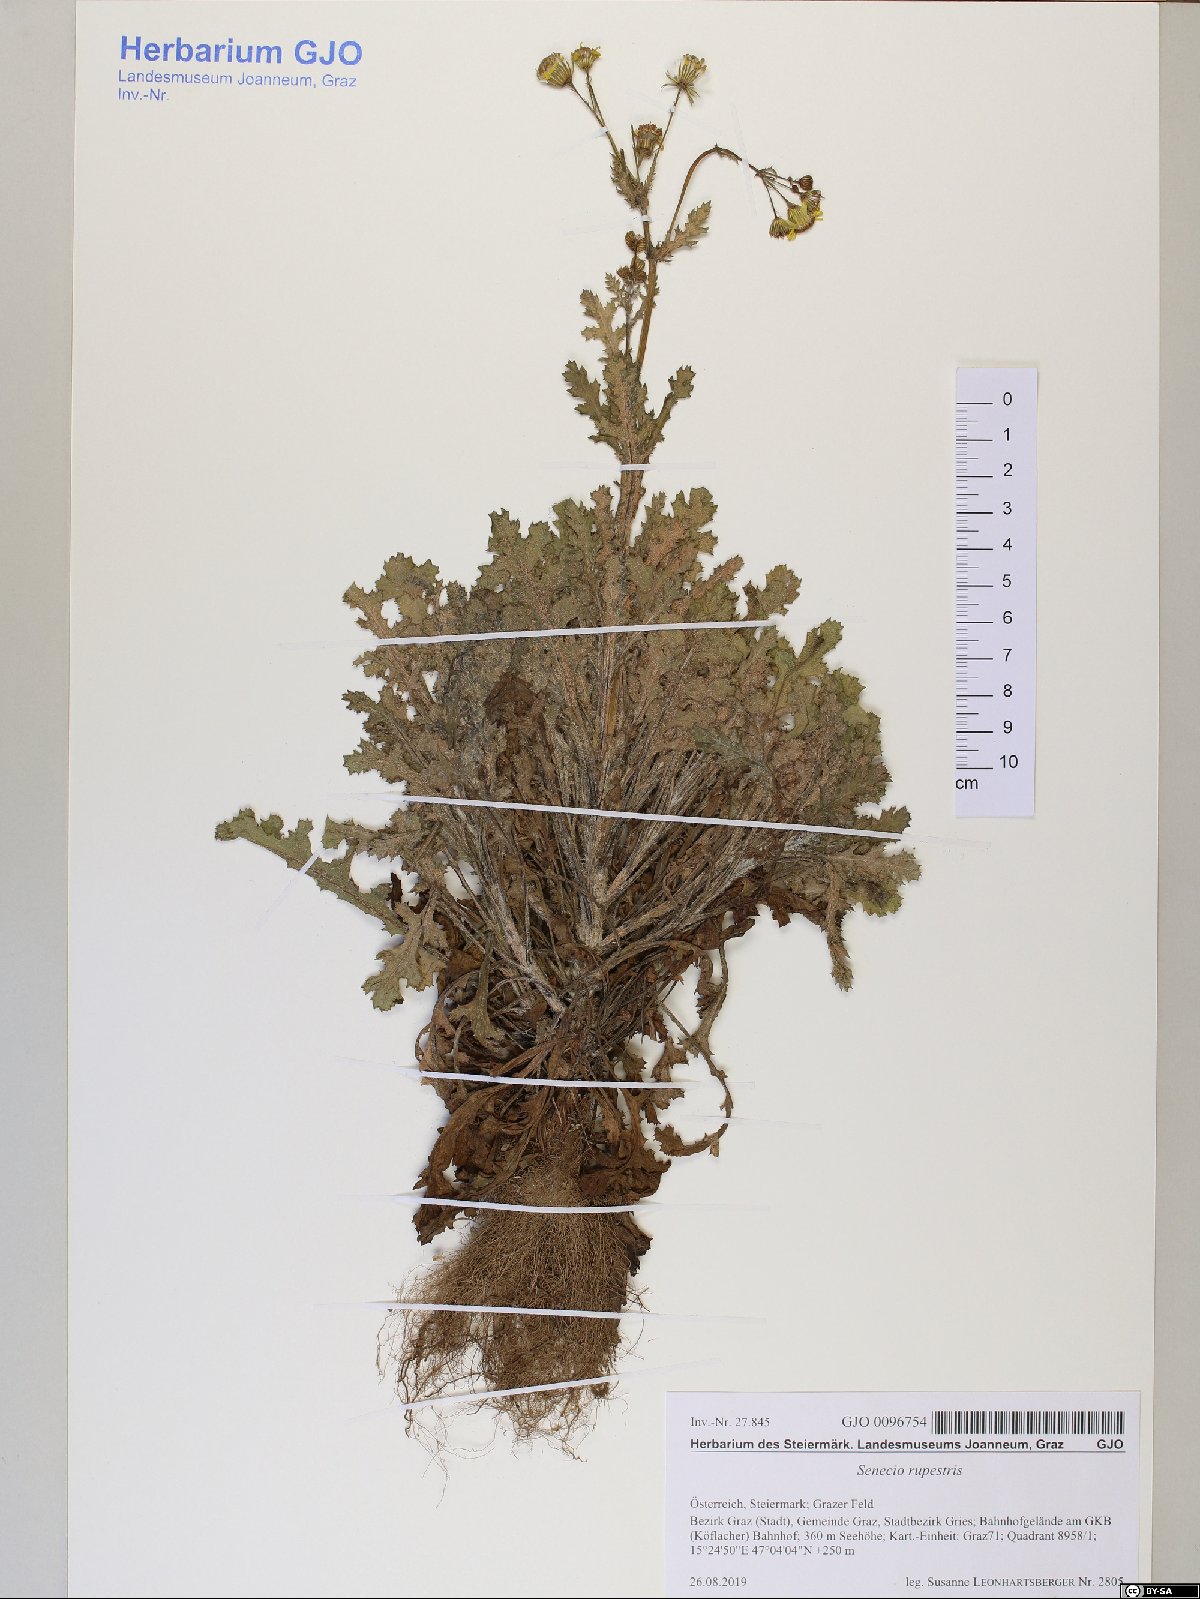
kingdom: Plantae
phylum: Tracheophyta
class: Magnoliopsida
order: Asterales
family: Asteraceae
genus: Senecio
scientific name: Senecio rupestris
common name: Rock ragwort
